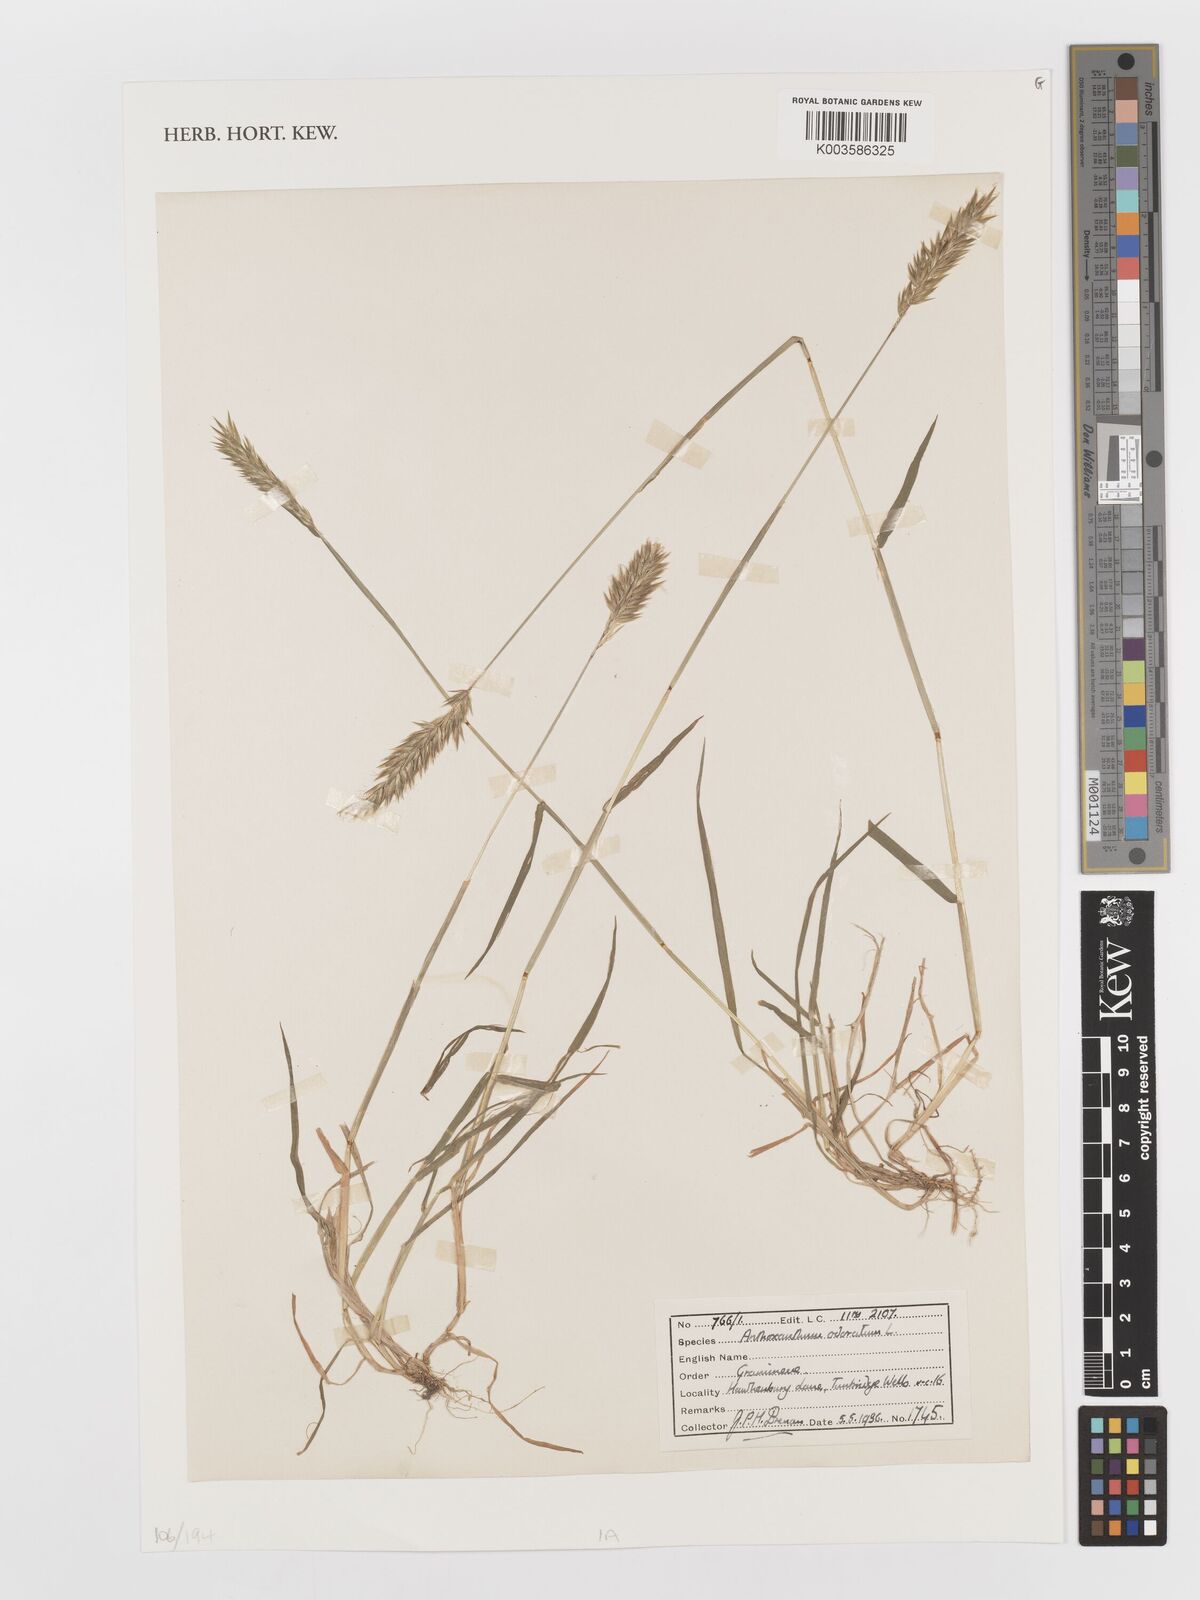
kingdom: Plantae
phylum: Tracheophyta
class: Liliopsida
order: Poales
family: Poaceae
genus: Anthoxanthum
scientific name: Anthoxanthum odoratum
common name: Sweet vernalgrass
